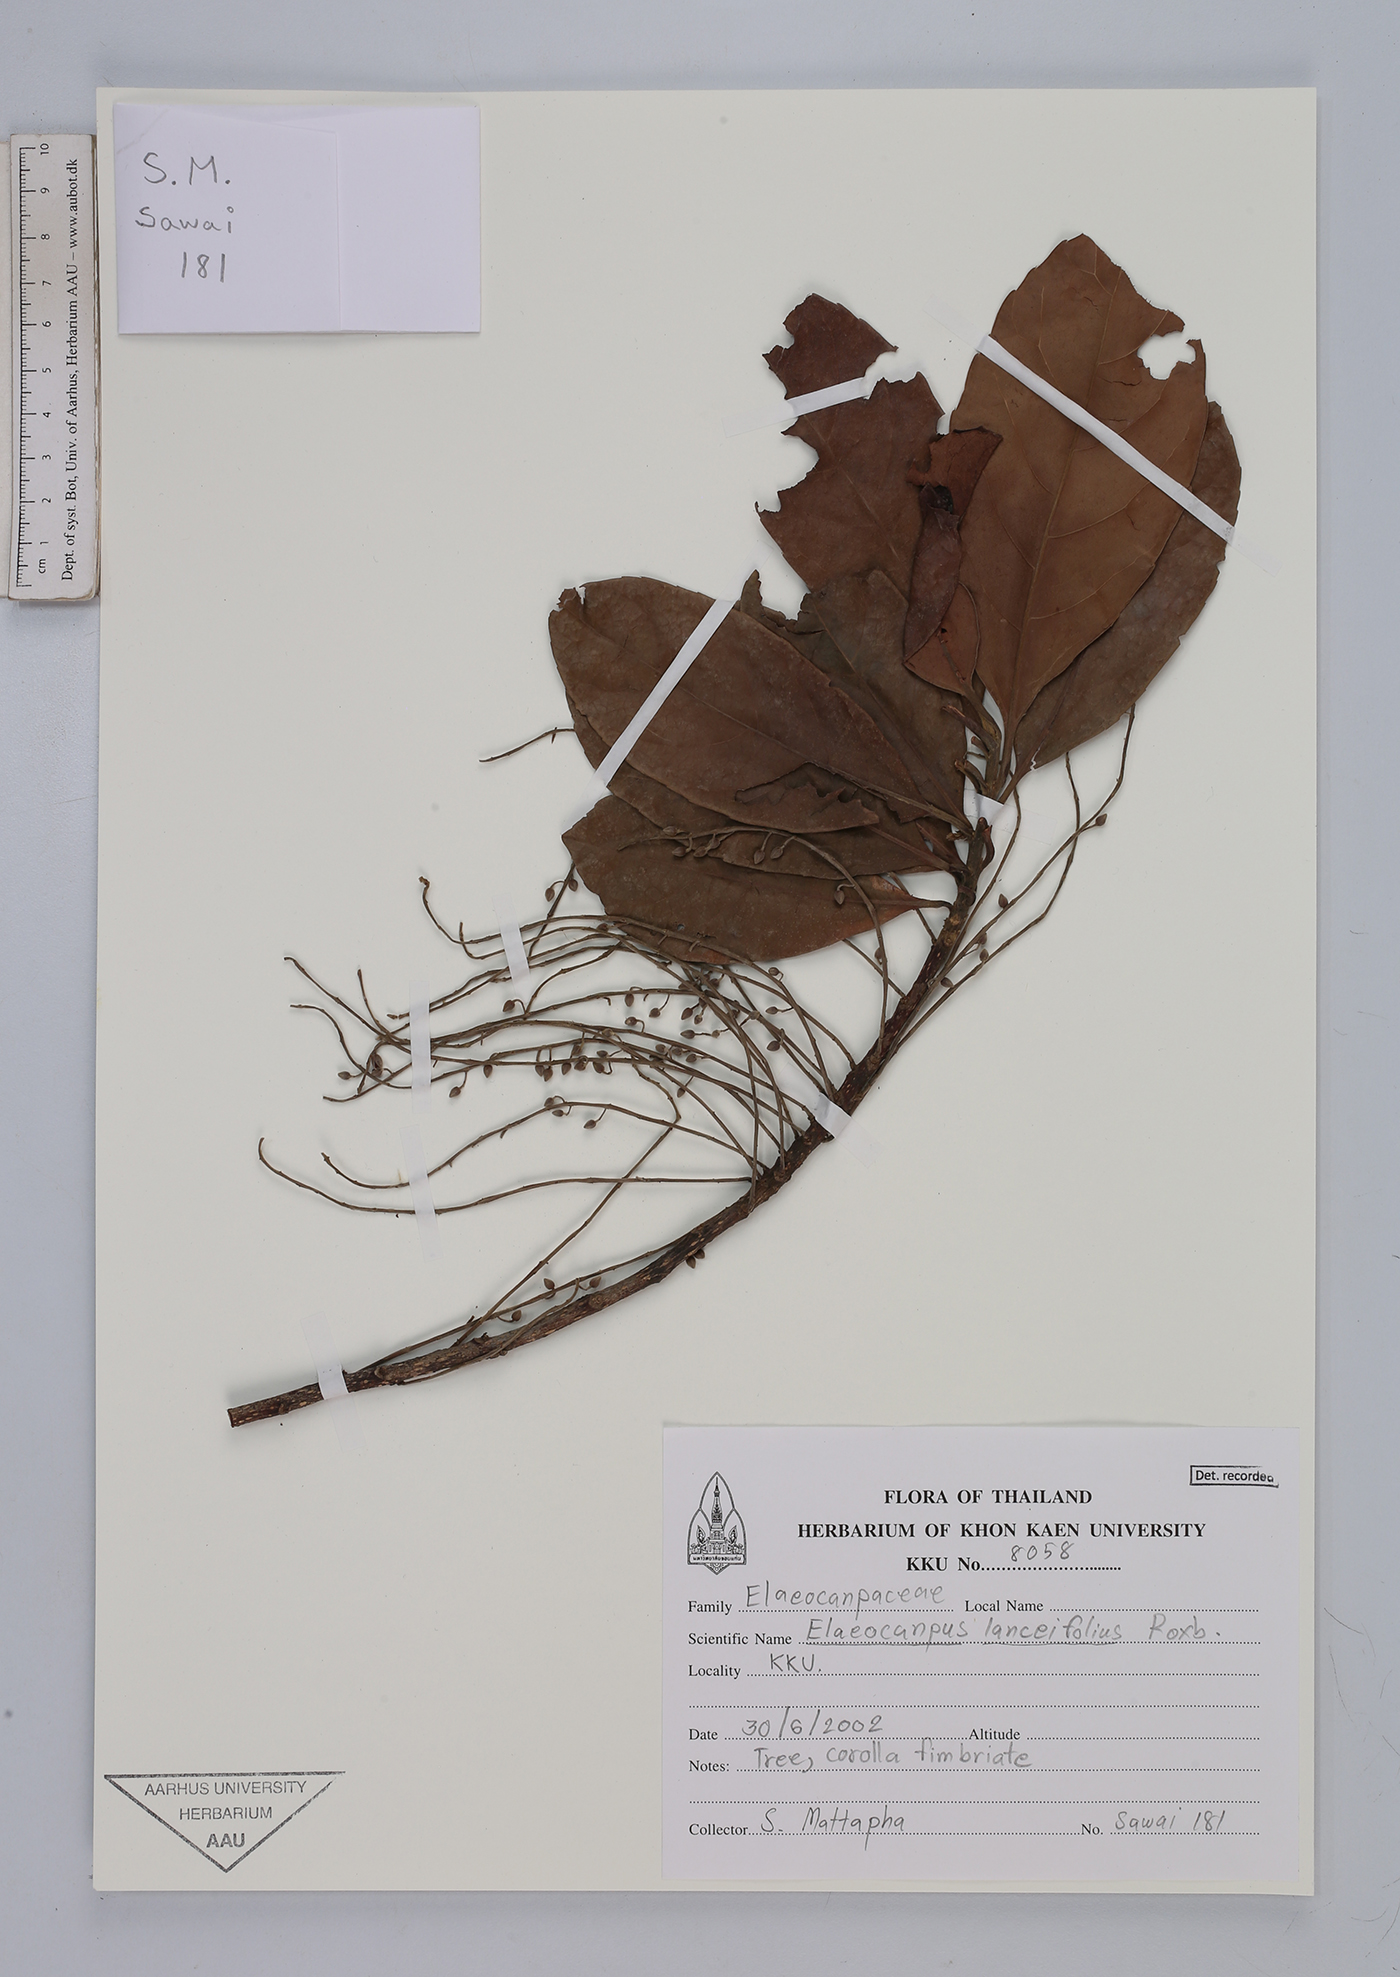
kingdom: Plantae
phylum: Tracheophyta
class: Magnoliopsida
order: Oxalidales
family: Elaeocarpaceae
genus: Elaeocarpus
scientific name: Elaeocarpus lanceifolius
